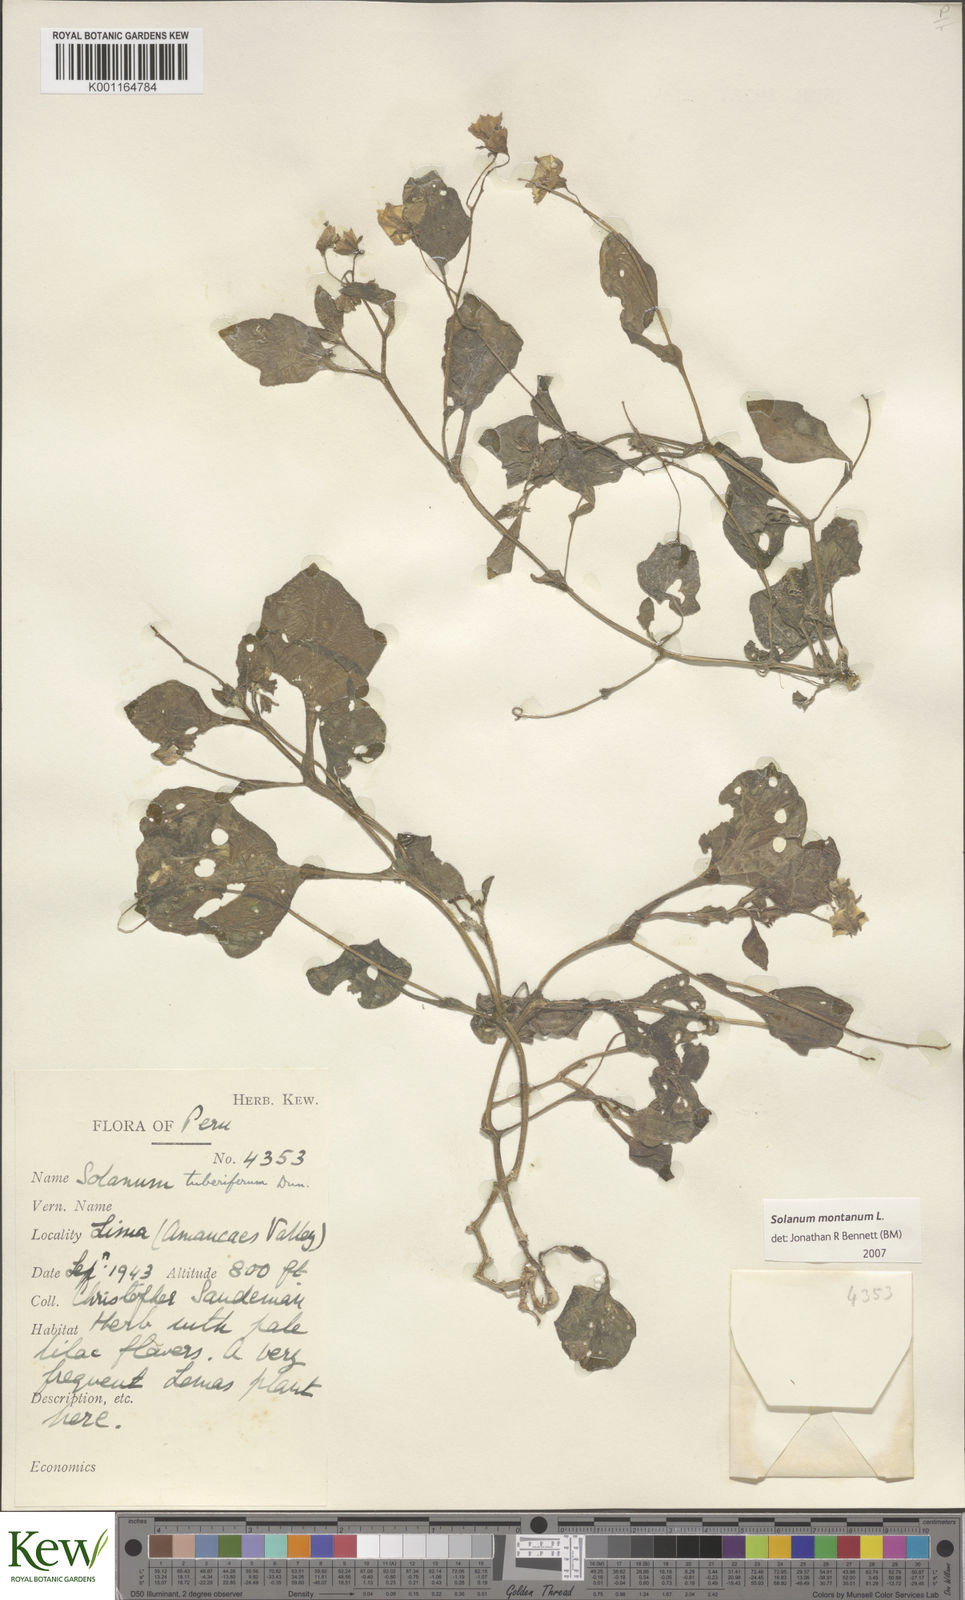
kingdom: Plantae
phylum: Tracheophyta
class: Magnoliopsida
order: Solanales
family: Solanaceae
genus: Solanum
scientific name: Solanum montanum
